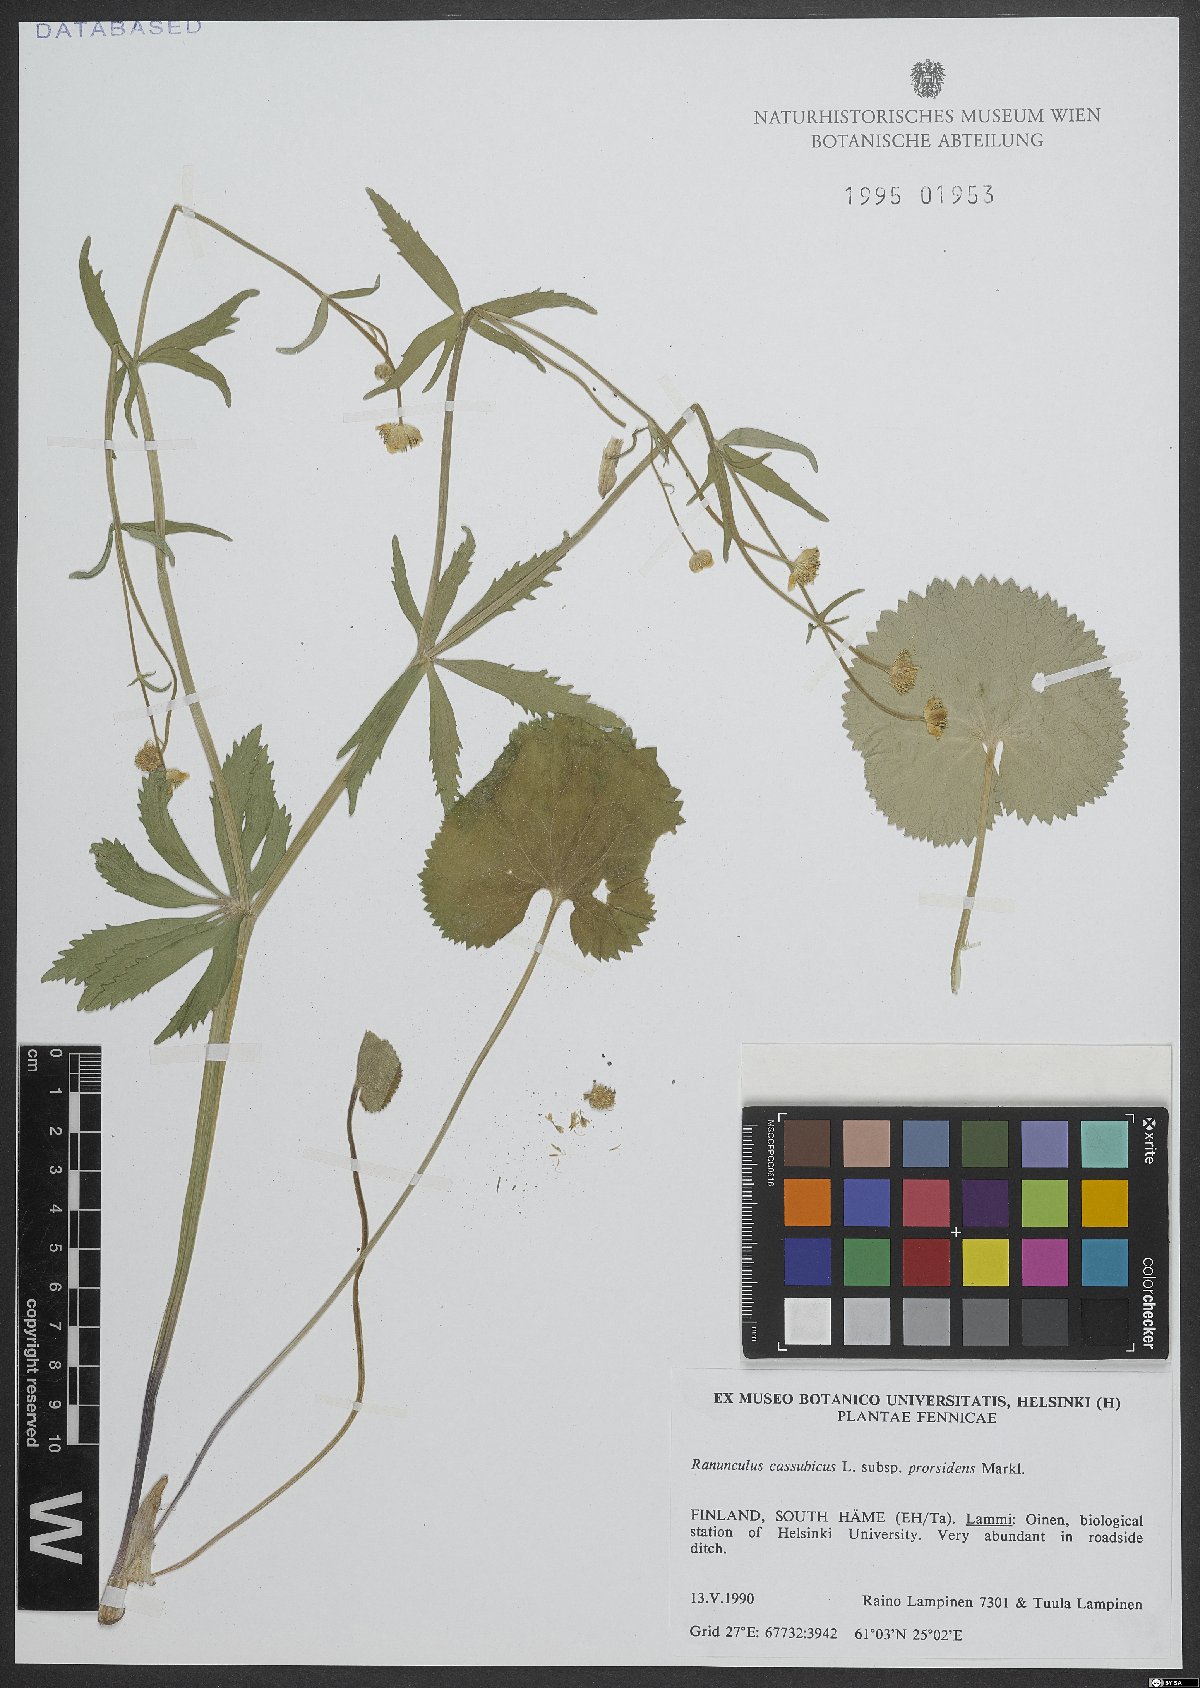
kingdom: Plantae
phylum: Tracheophyta
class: Magnoliopsida
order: Ranunculales
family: Ranunculaceae
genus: Ranunculus
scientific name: Ranunculus cassubicus
